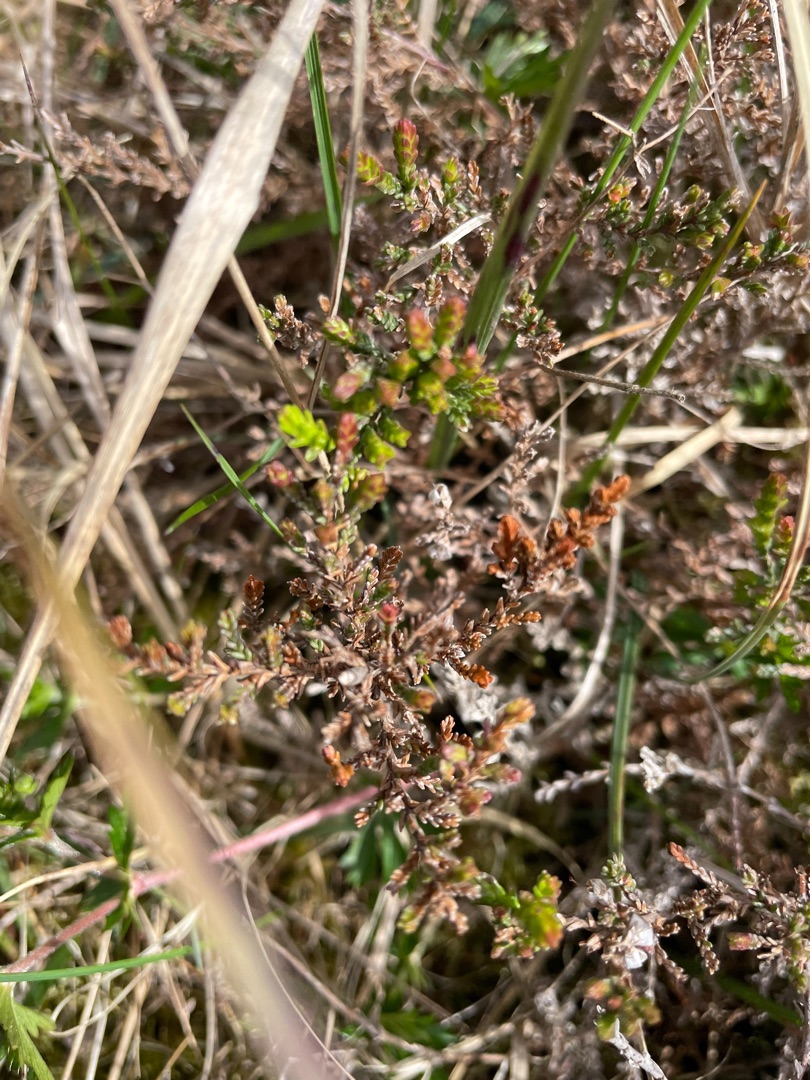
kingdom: Plantae
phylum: Tracheophyta
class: Magnoliopsida
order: Ericales
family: Ericaceae
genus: Calluna
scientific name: Calluna vulgaris
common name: Hedelyng
